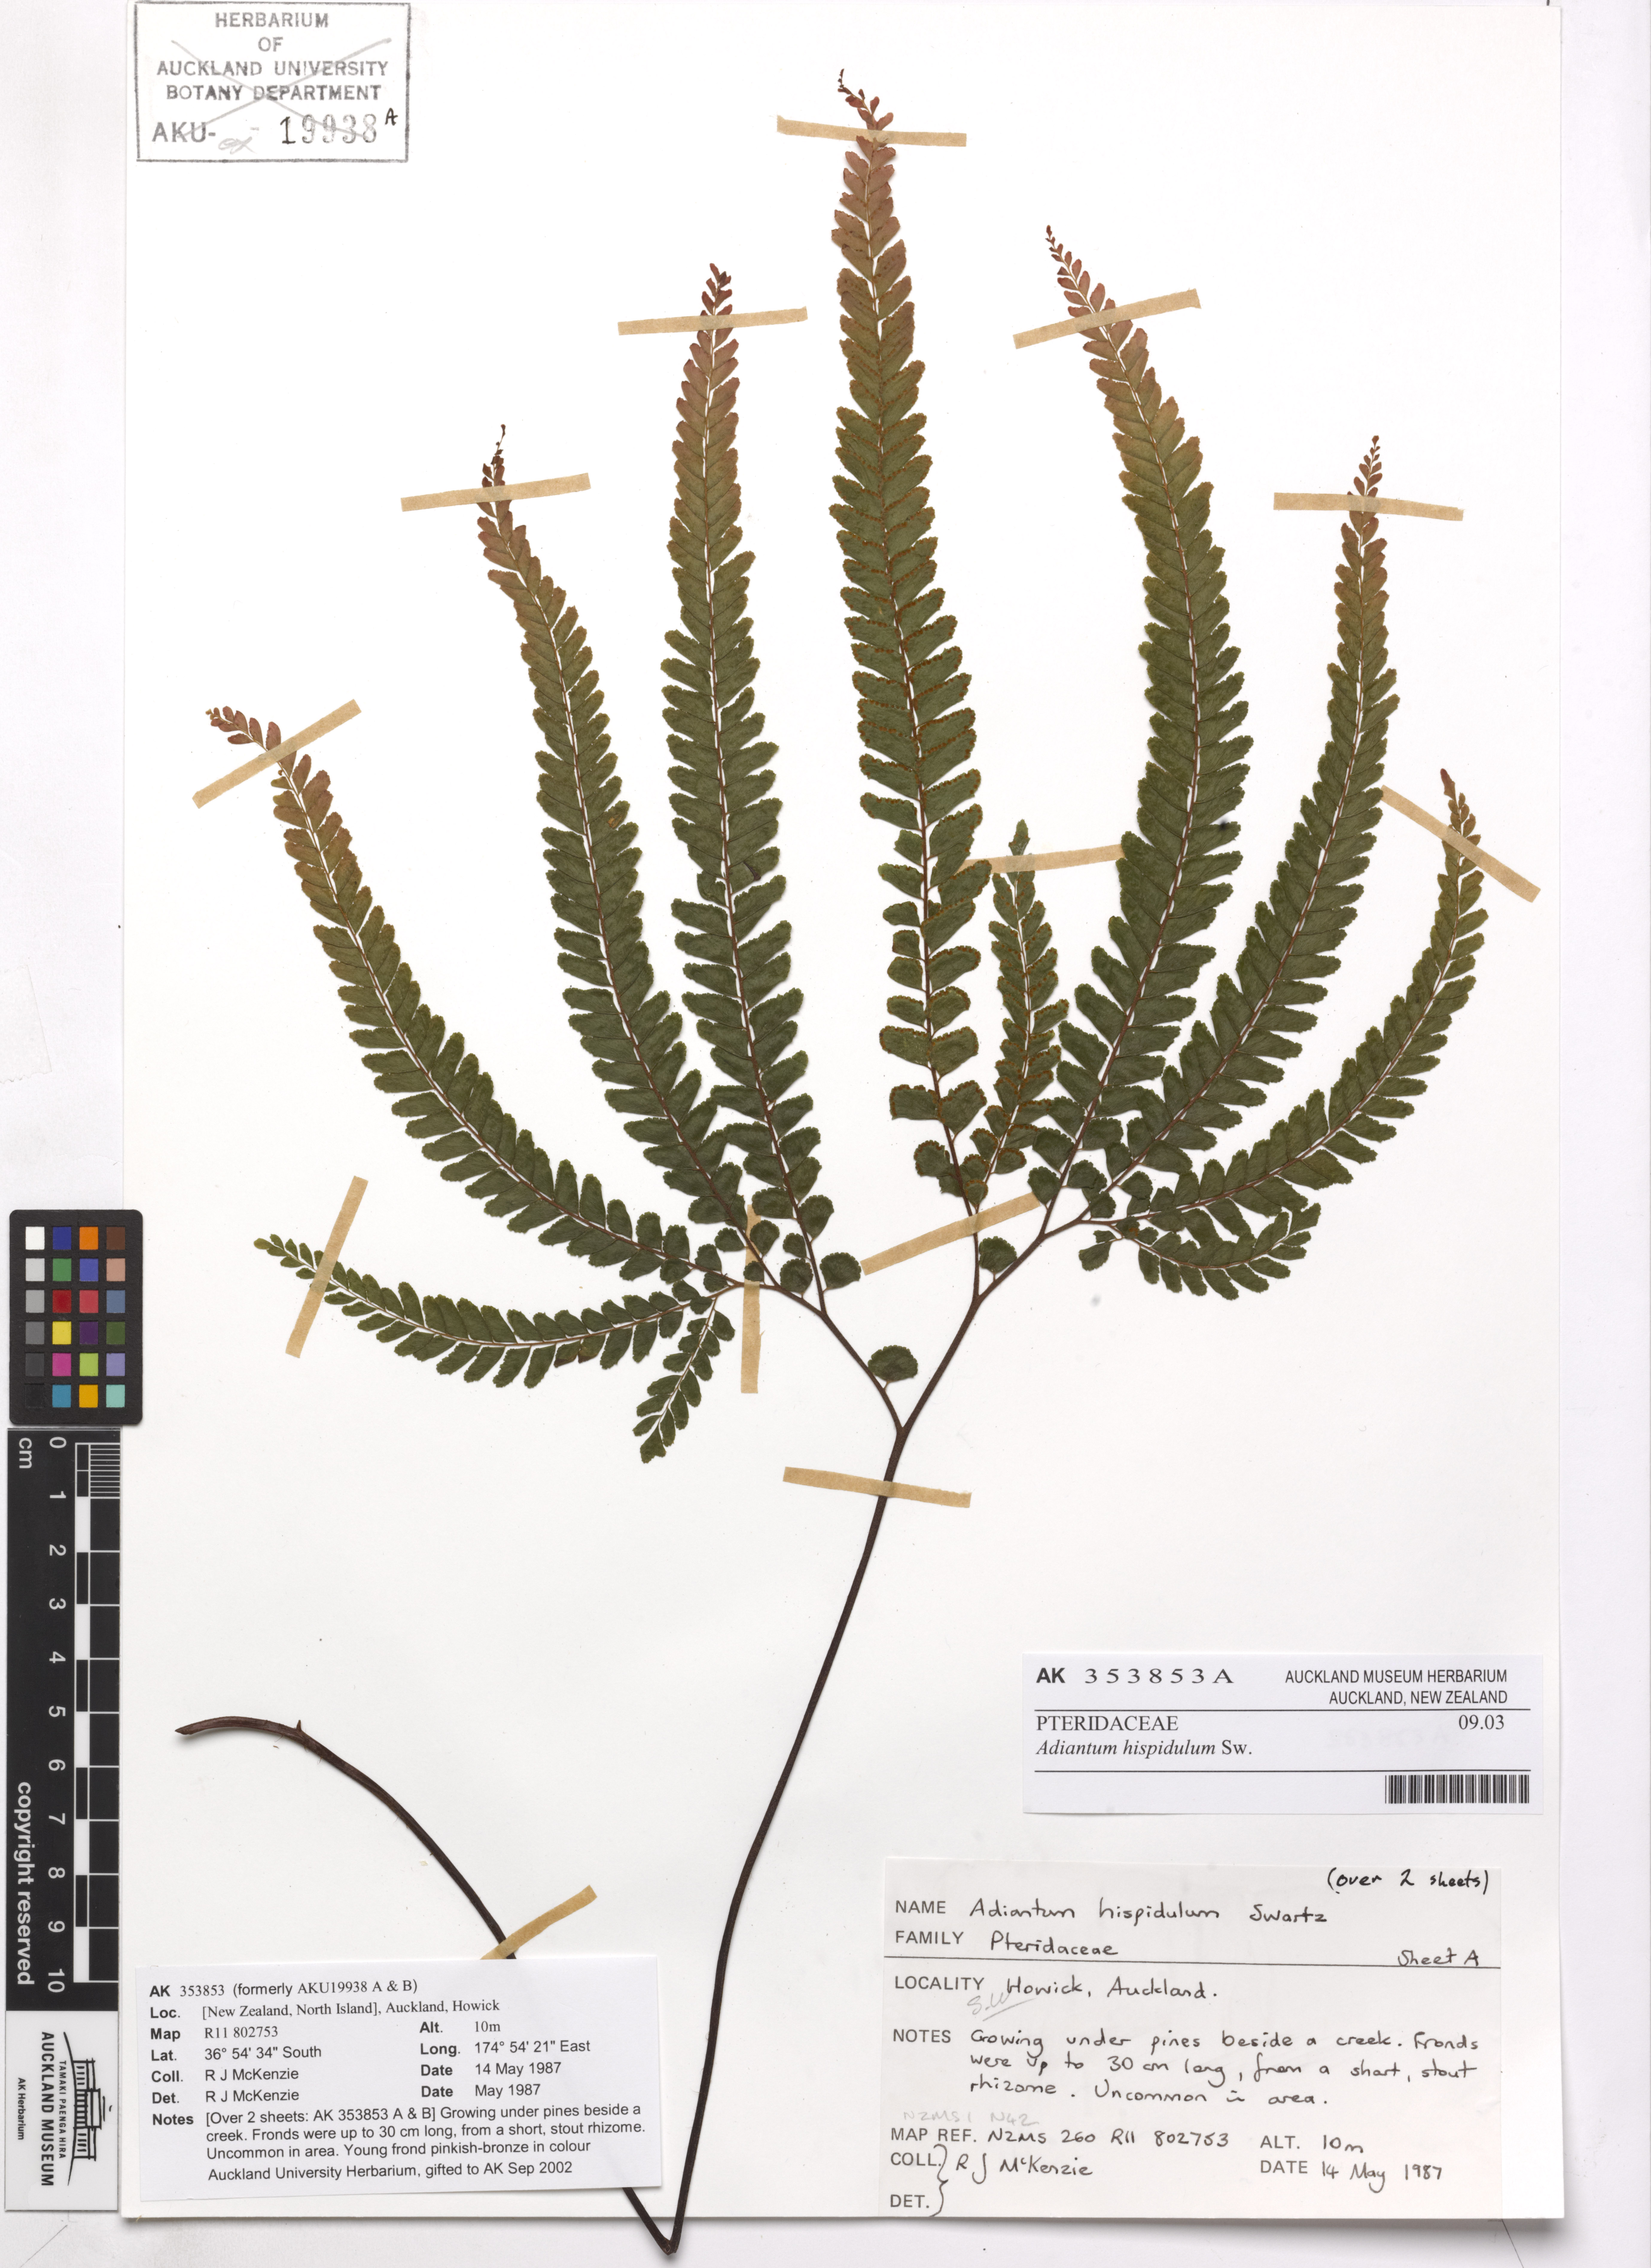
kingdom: Plantae
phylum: Tracheophyta
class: Polypodiopsida
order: Polypodiales
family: Pteridaceae
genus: Adiantum
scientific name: Adiantum hispidulum
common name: Rough maidenhair
